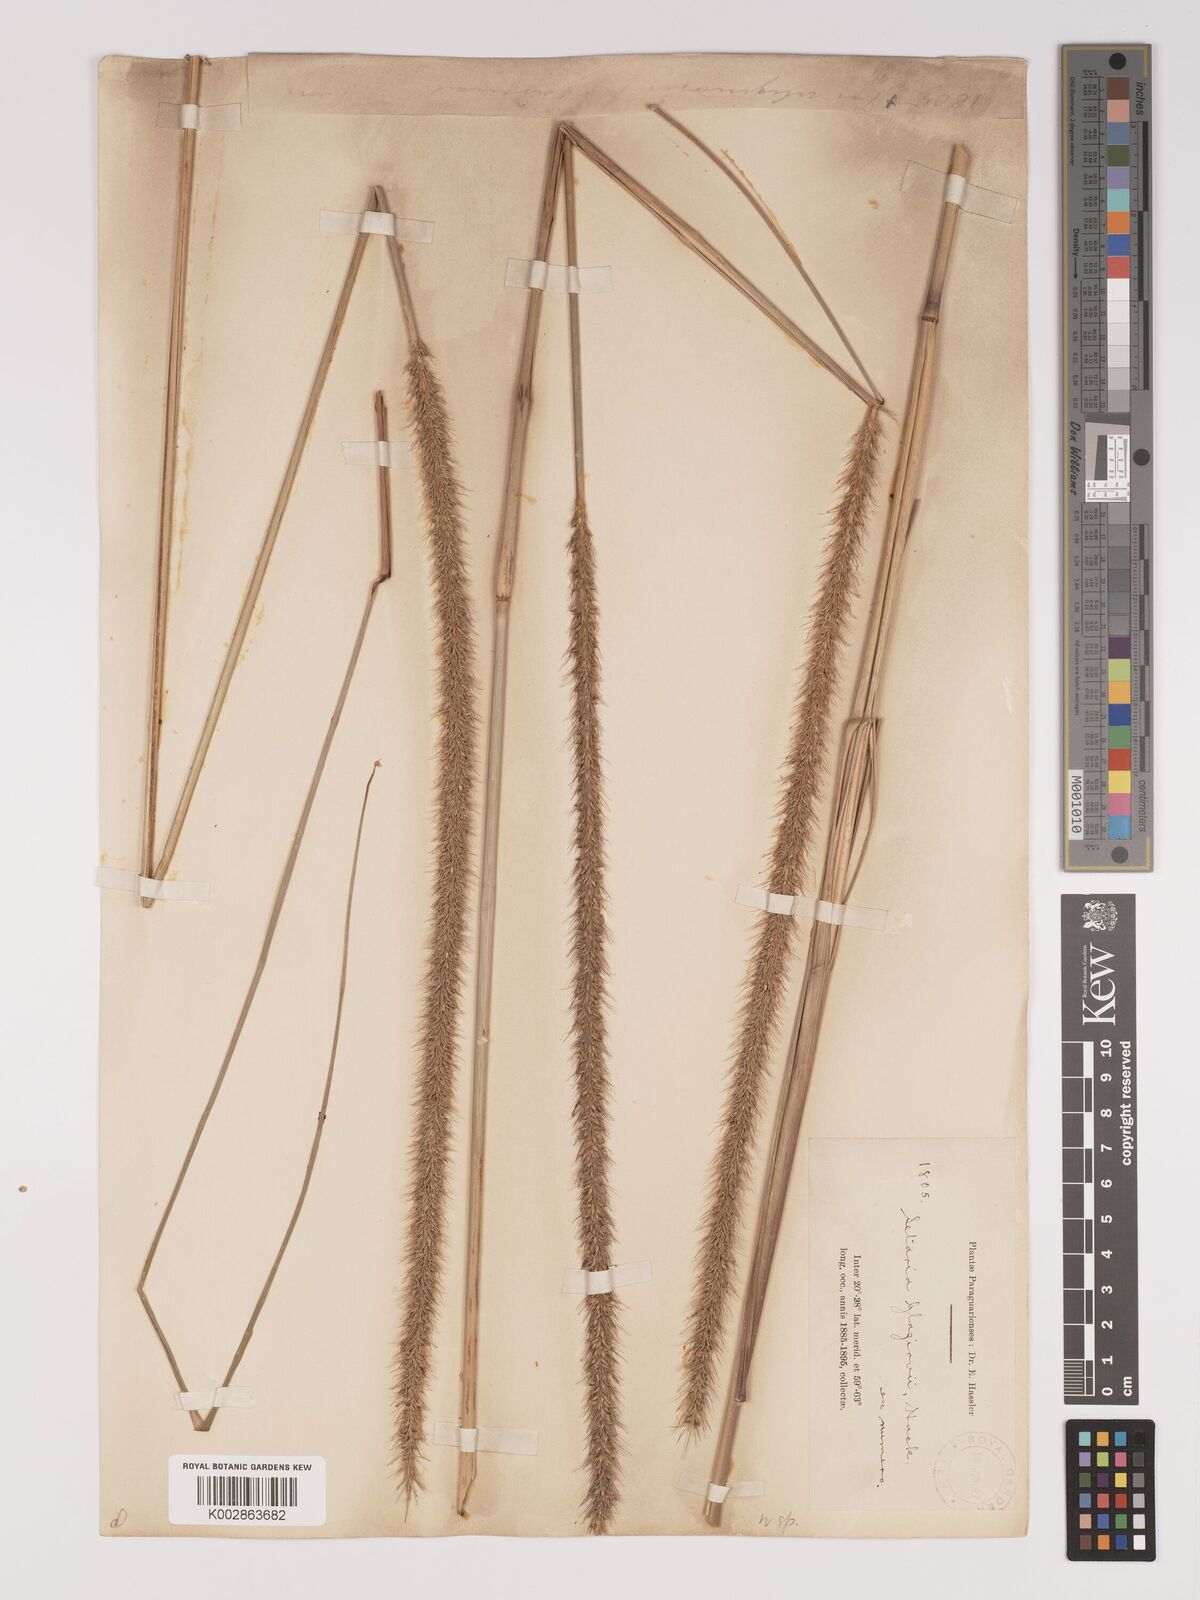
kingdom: Plantae
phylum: Tracheophyta
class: Liliopsida
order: Poales
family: Poaceae
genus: Setaria
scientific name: Setaria paucifolia
